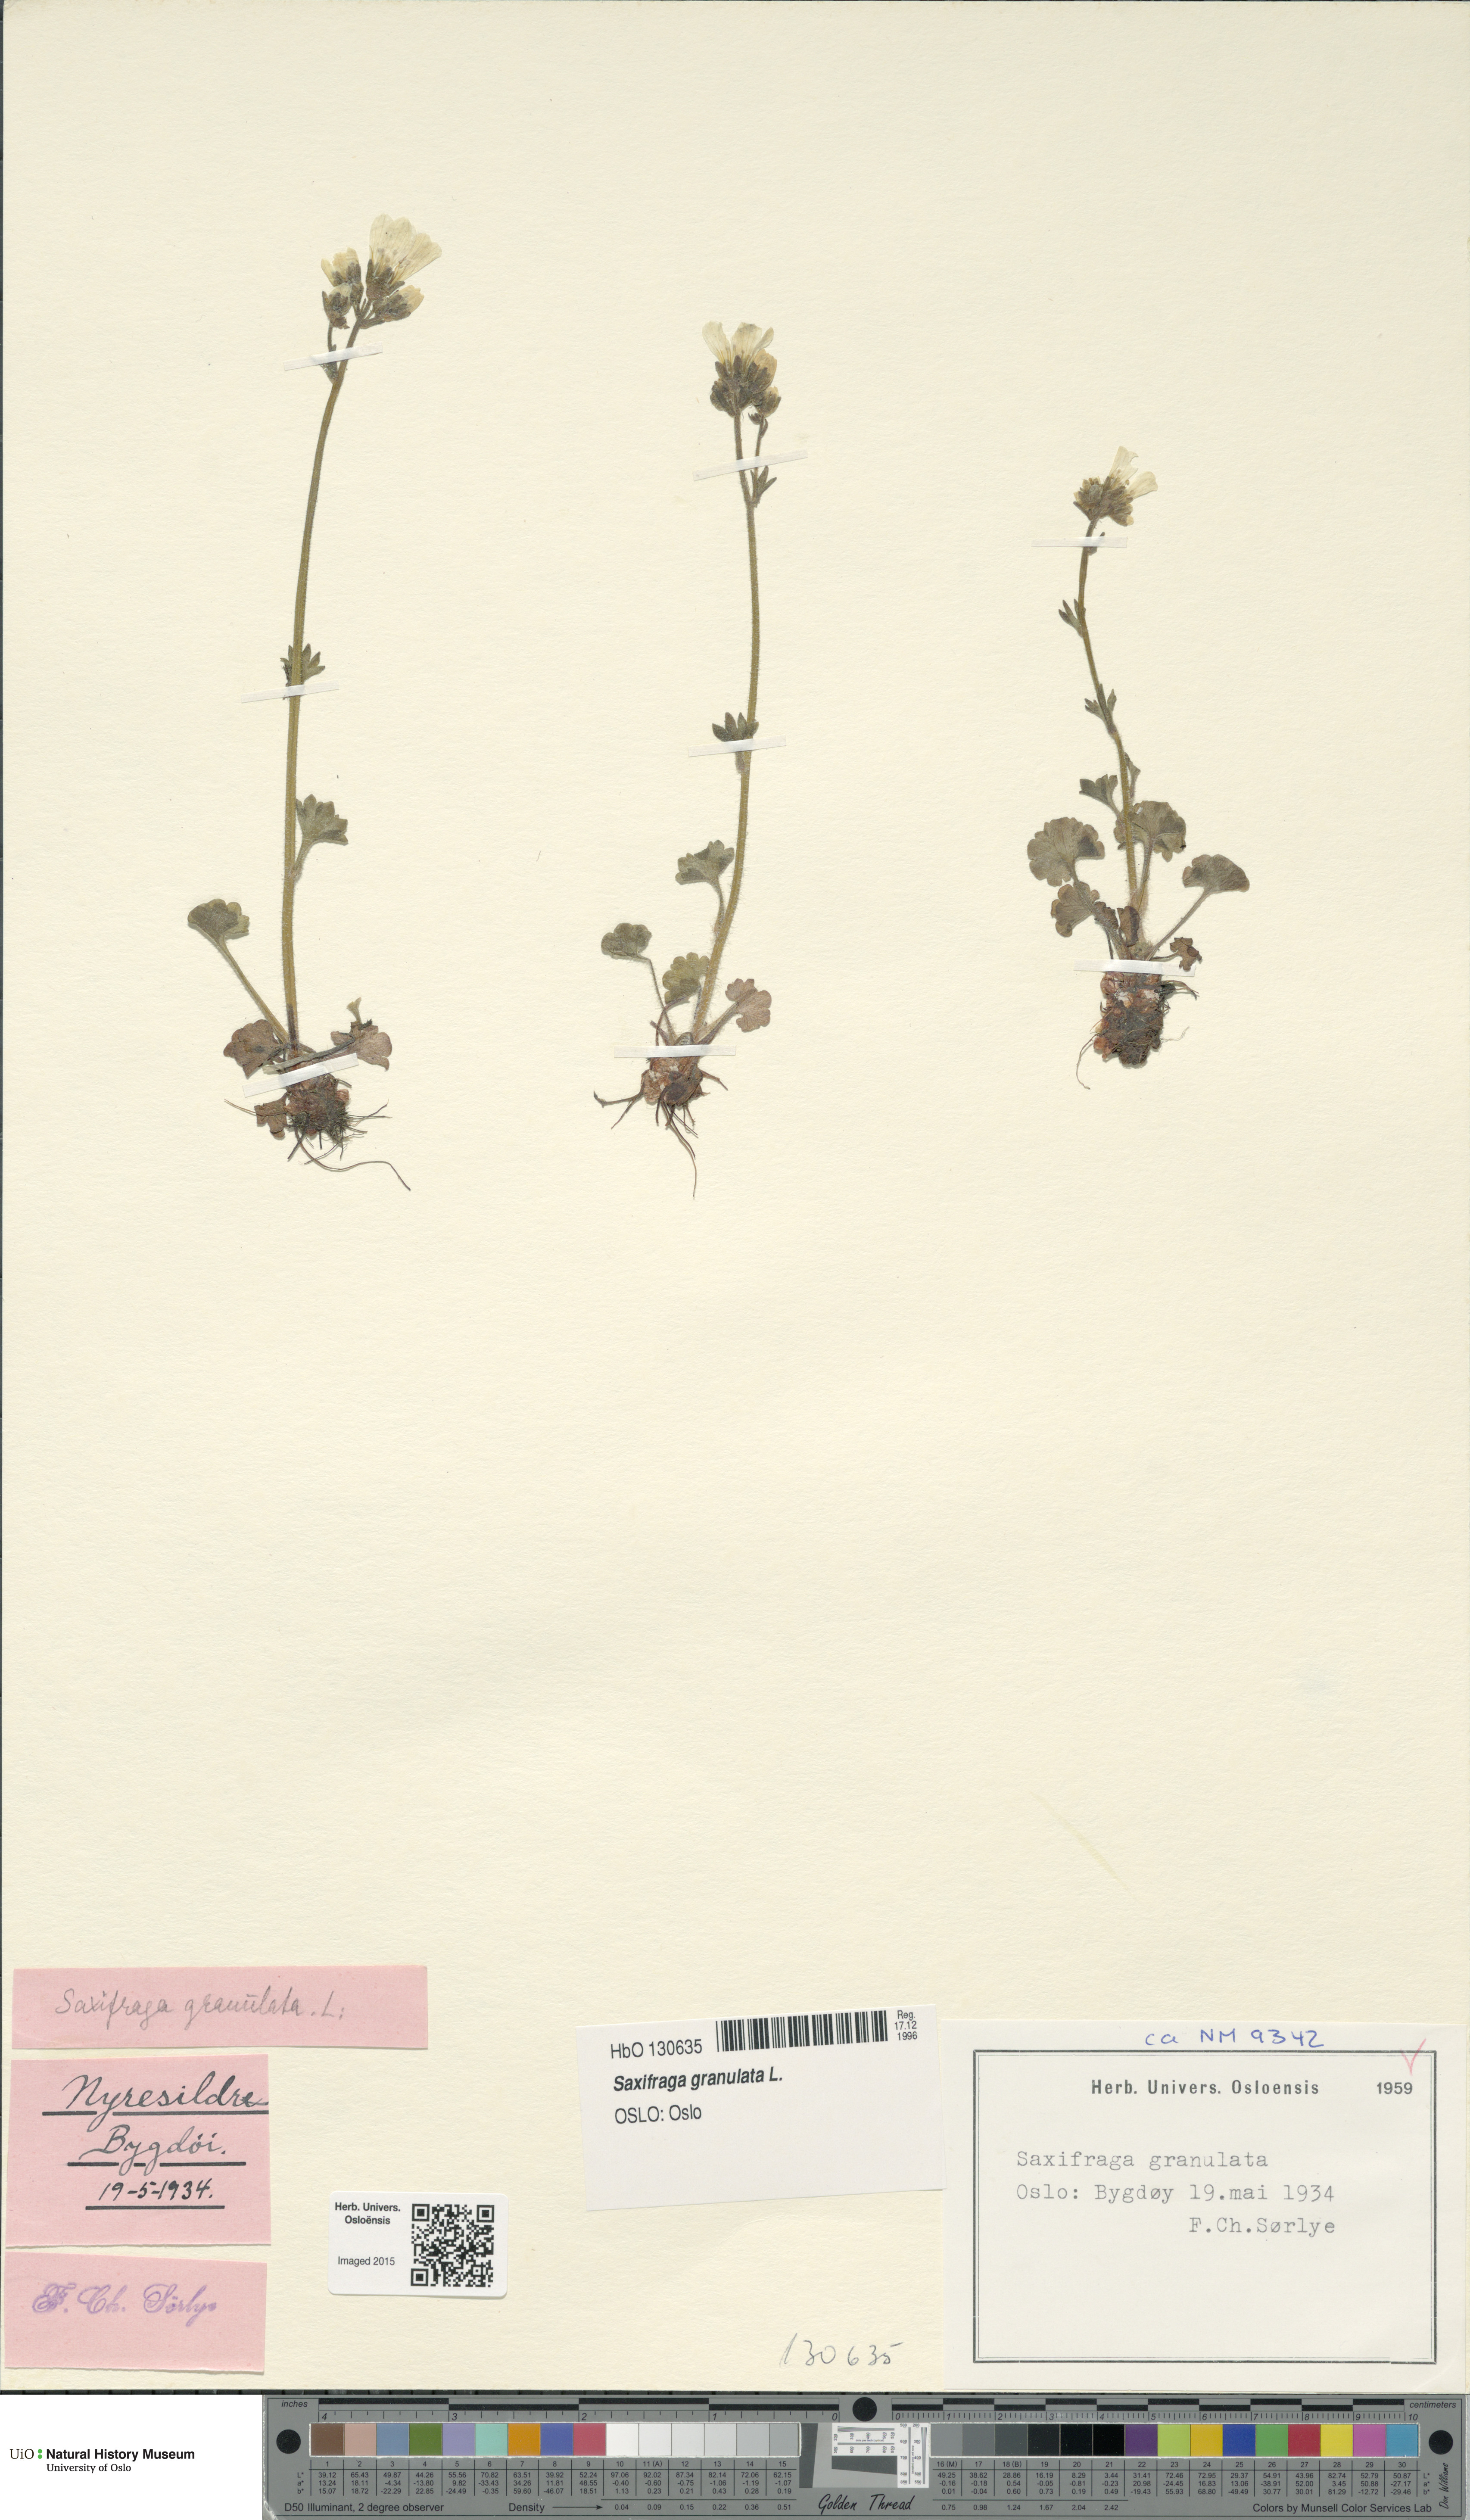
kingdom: Plantae
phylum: Tracheophyta
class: Magnoliopsida
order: Saxifragales
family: Saxifragaceae
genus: Saxifraga
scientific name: Saxifraga granulata
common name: Meadow saxifrage
